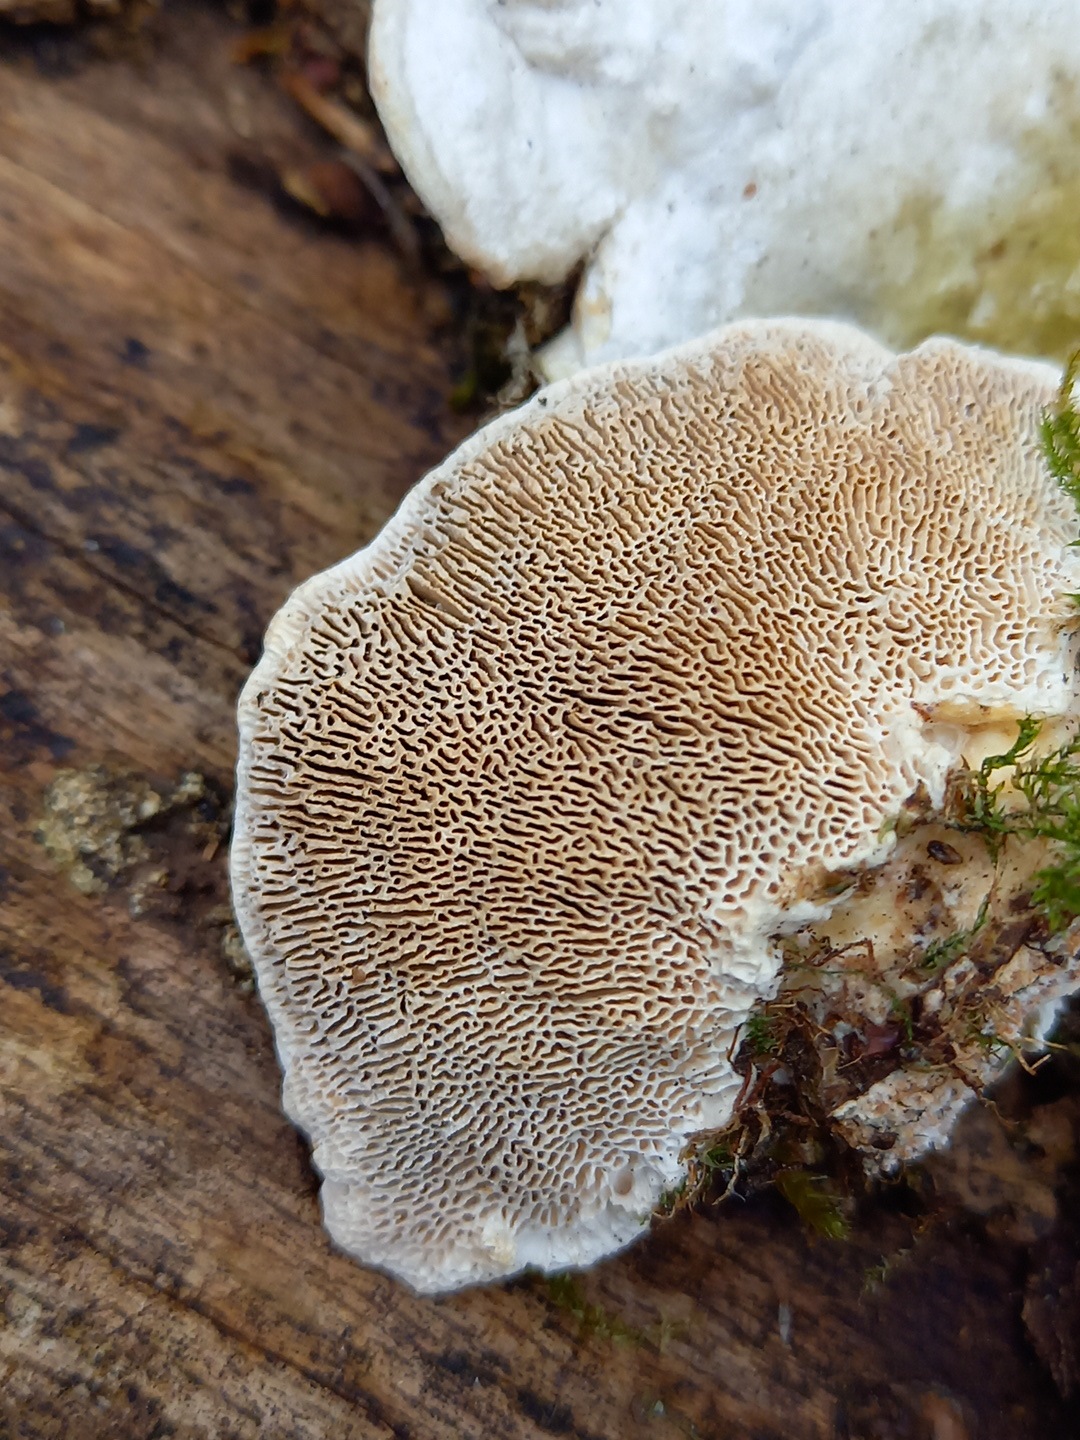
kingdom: Fungi
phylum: Basidiomycota
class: Agaricomycetes
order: Polyporales
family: Polyporaceae
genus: Trametes
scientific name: Trametes gibbosa
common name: puklet læderporesvamp
